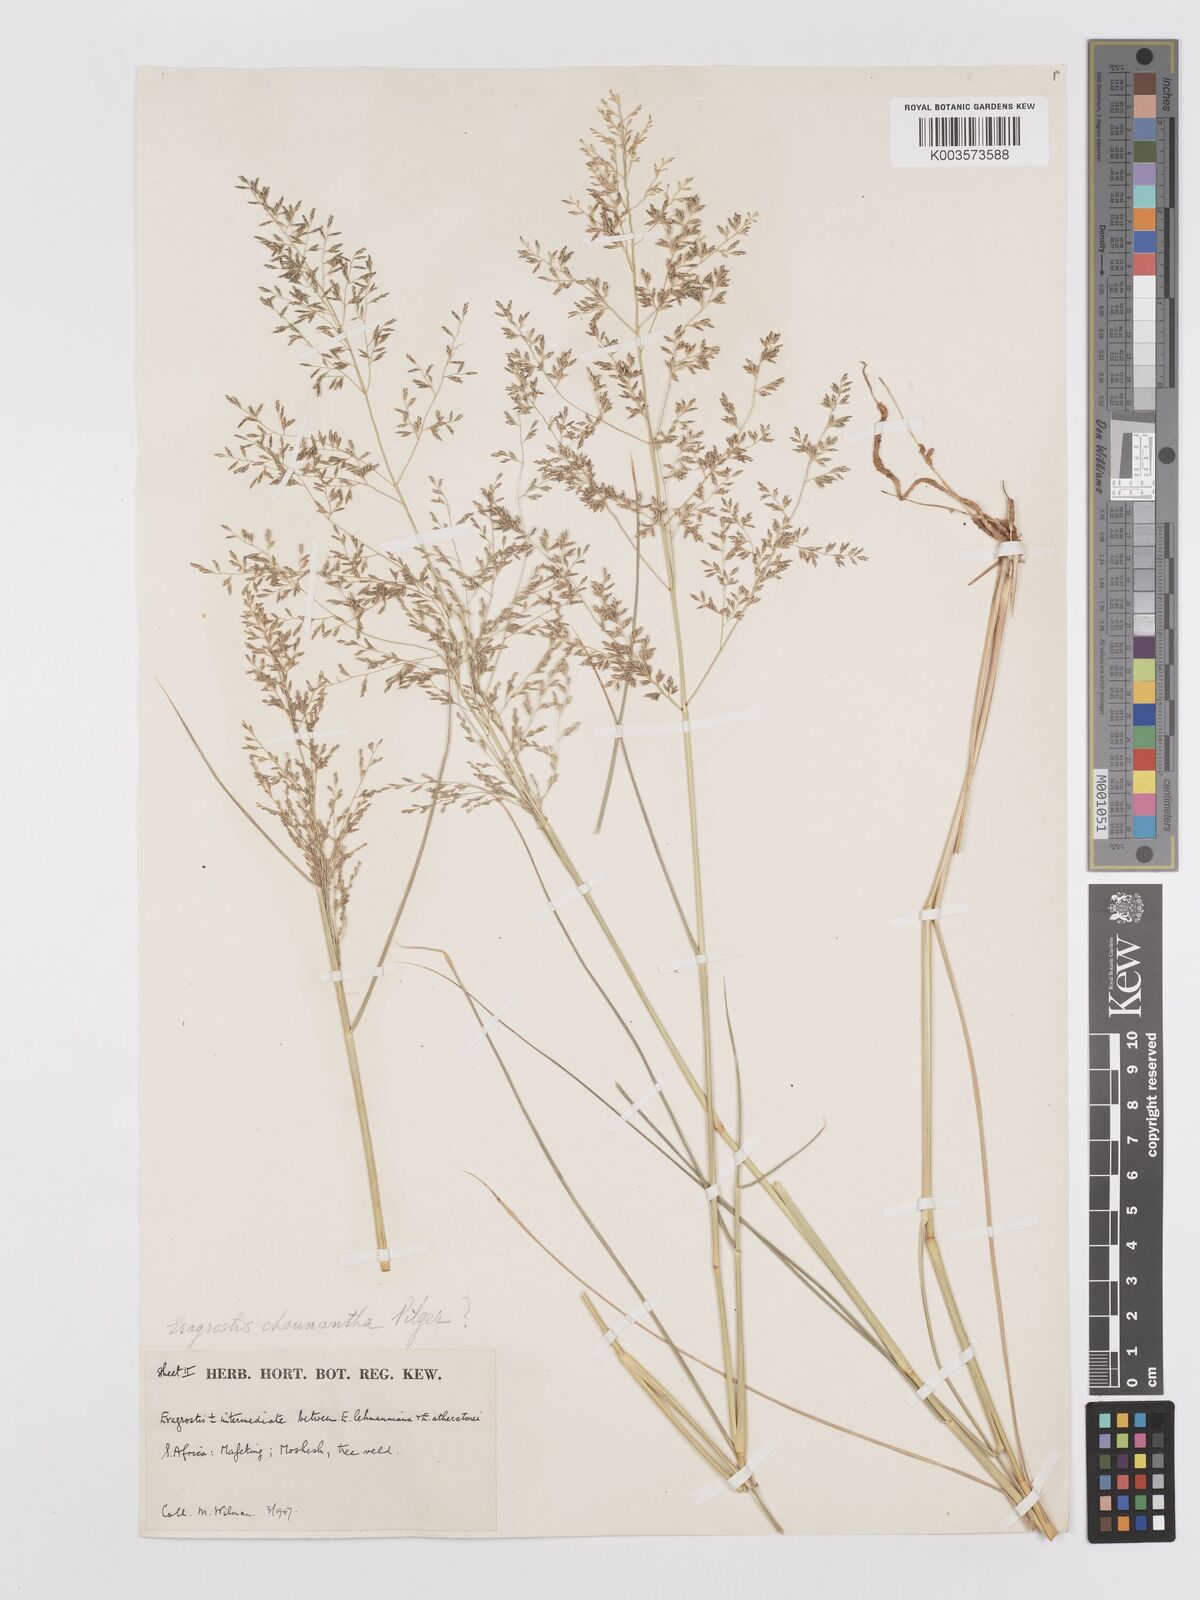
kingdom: Plantae
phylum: Tracheophyta
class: Liliopsida
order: Poales
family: Poaceae
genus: Eragrostis
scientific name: Eragrostis lehmanniana
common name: Lehmann lovegrass
